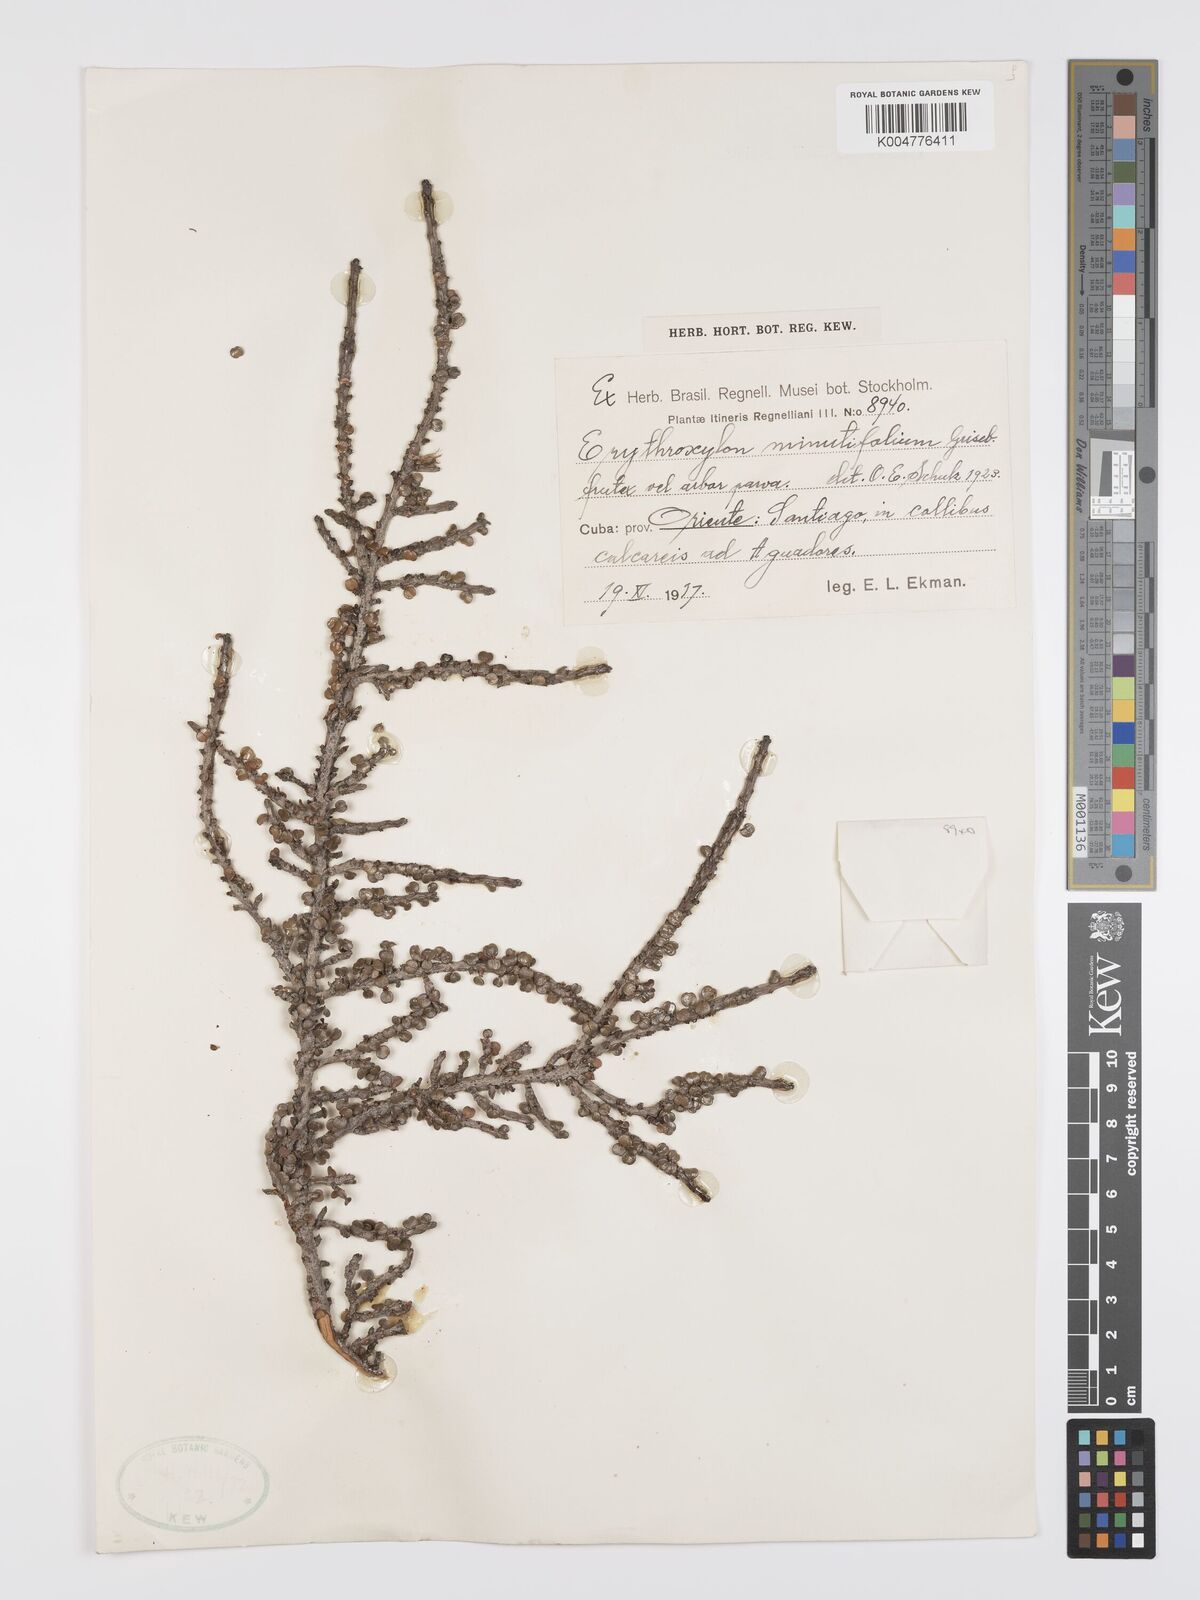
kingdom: Plantae
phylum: Tracheophyta
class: Magnoliopsida
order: Malpighiales
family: Erythroxylaceae
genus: Erythroxylum
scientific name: Erythroxylum minutifolium
